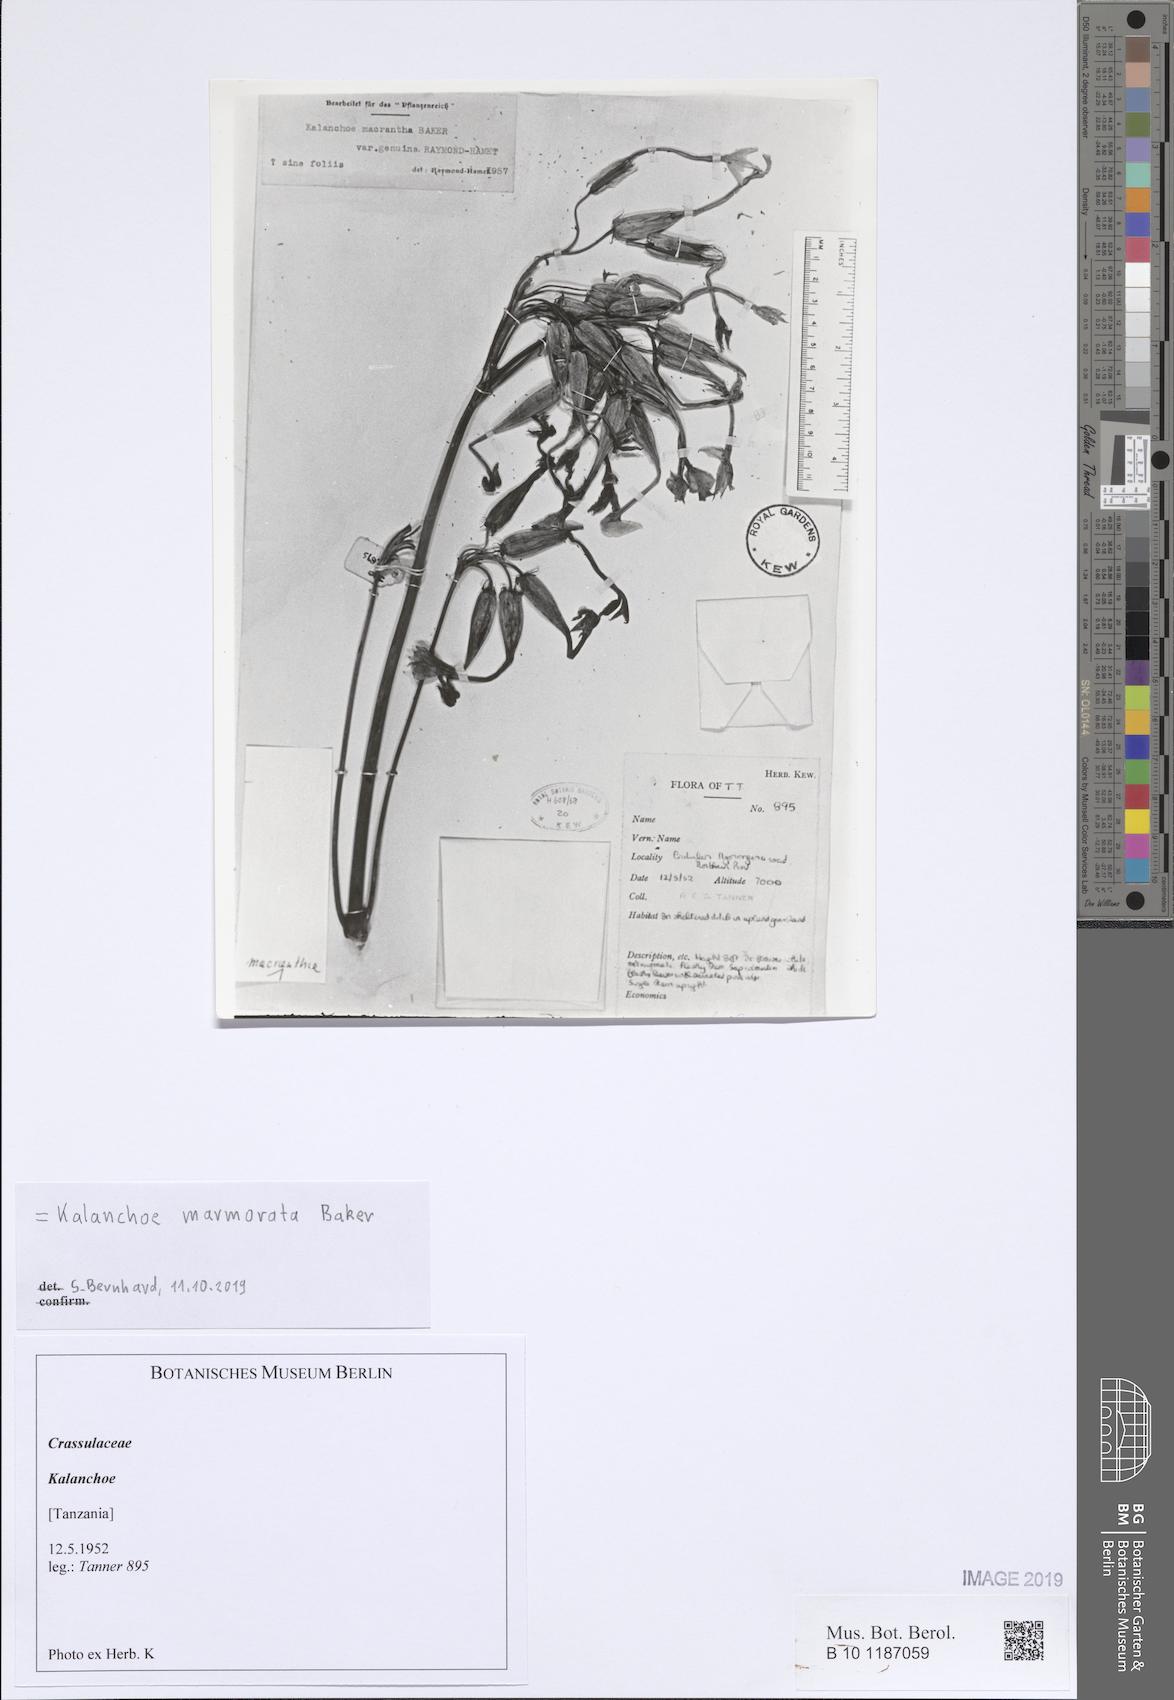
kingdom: Plantae
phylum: Tracheophyta
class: Magnoliopsida
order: Saxifragales
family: Crassulaceae
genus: Kalanchoe
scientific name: Kalanchoe marmorata
